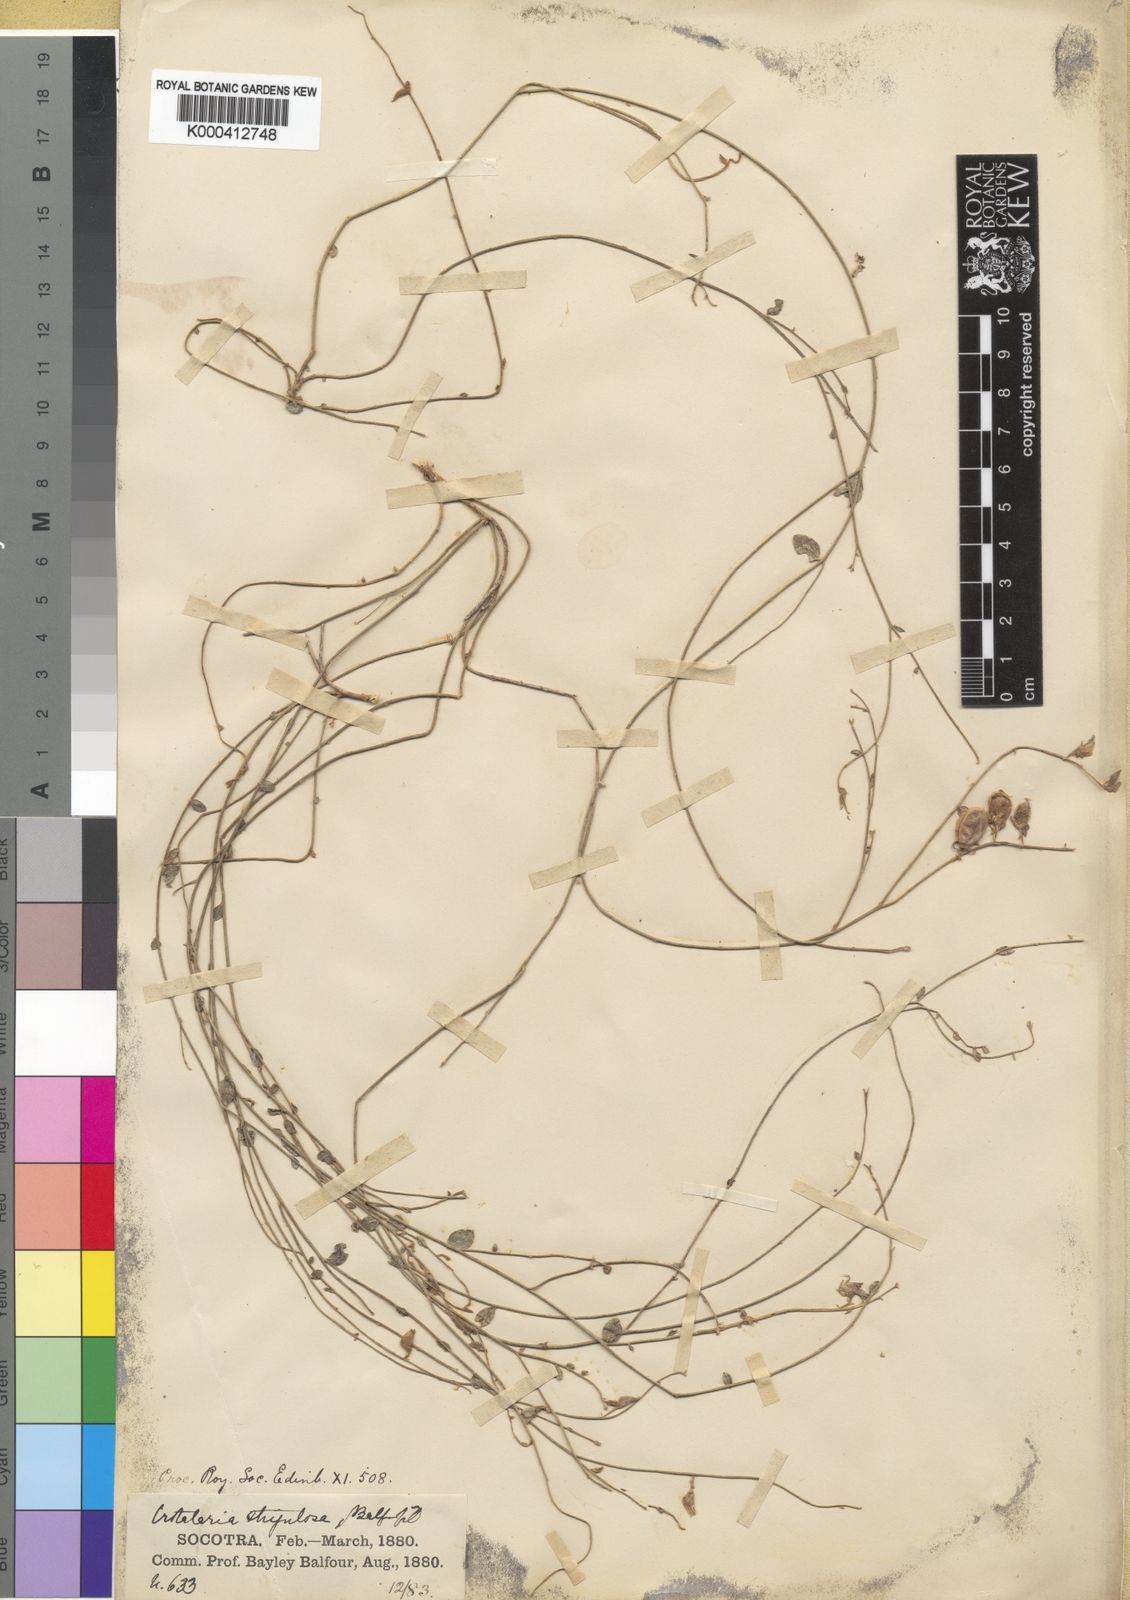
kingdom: Plantae
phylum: Tracheophyta
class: Magnoliopsida
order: Fabales
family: Fabaceae
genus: Crotalaria
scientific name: Crotalaria strigulosa
